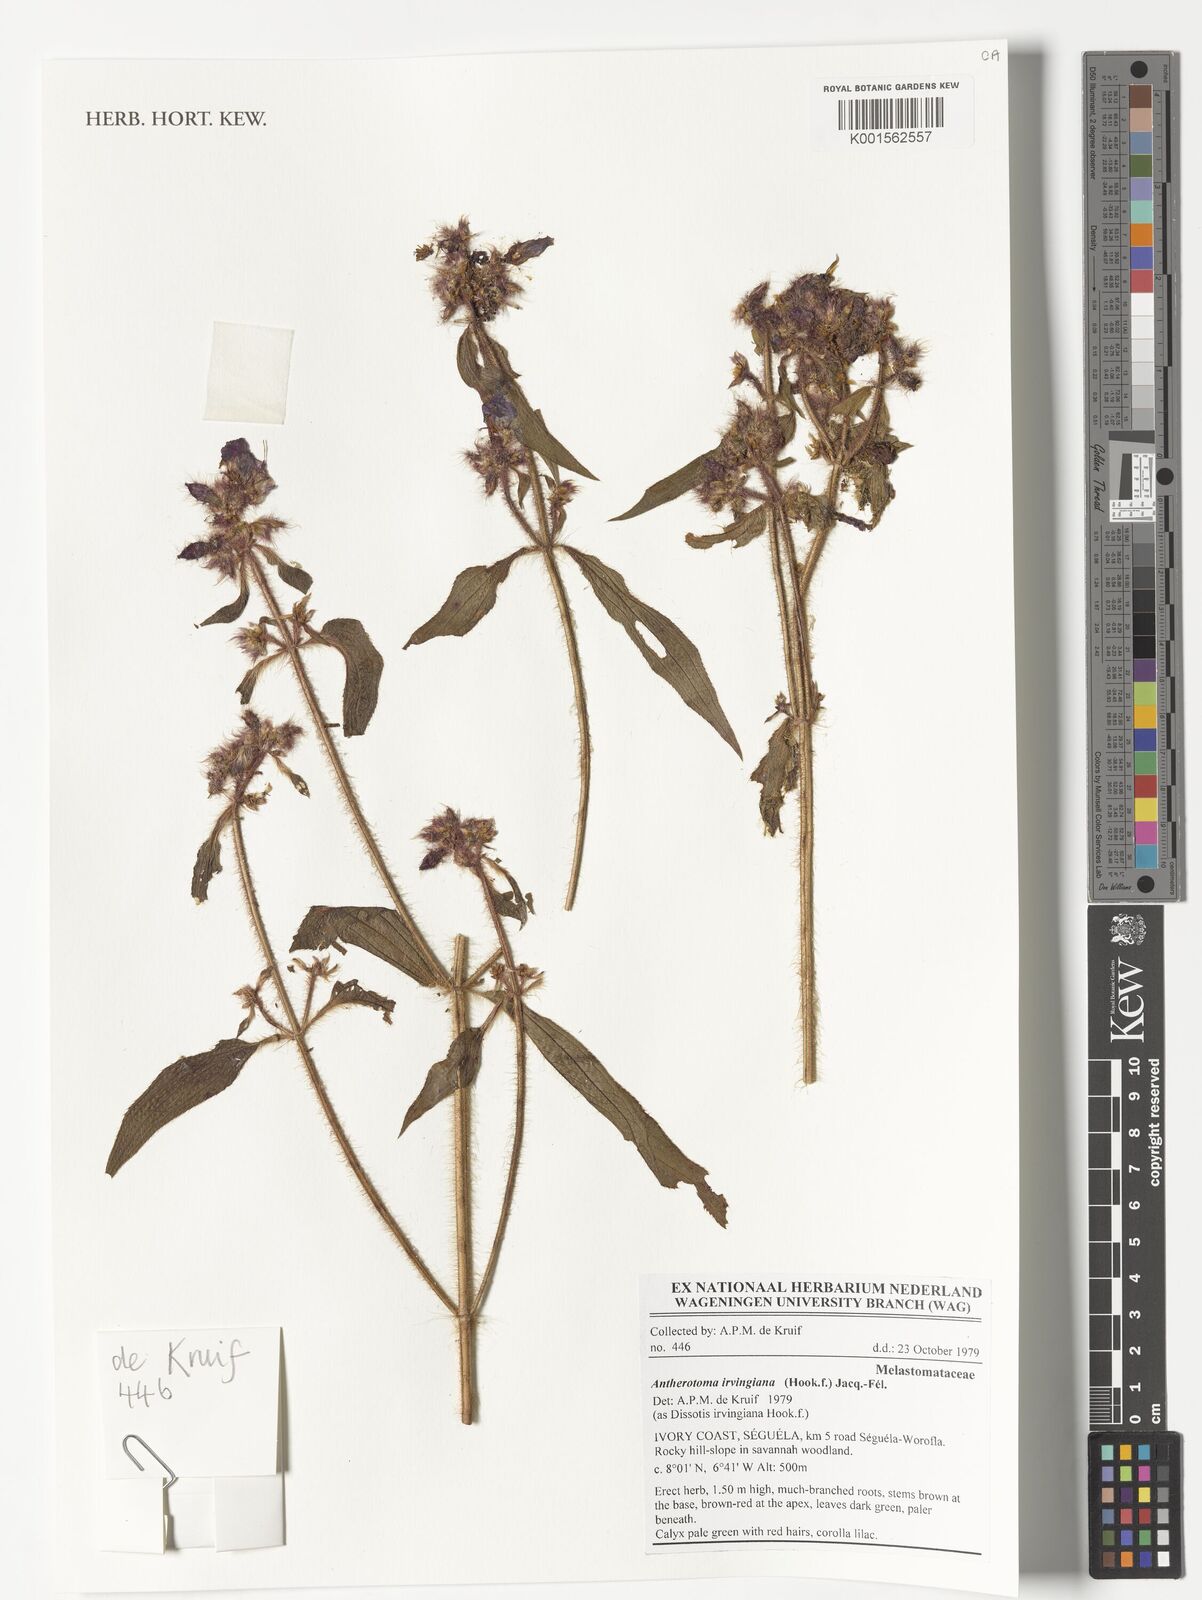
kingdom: Plantae
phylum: Tracheophyta
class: Magnoliopsida
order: Myrtales
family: Melastomataceae
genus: Antherotoma
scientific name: Antherotoma irvingiana
